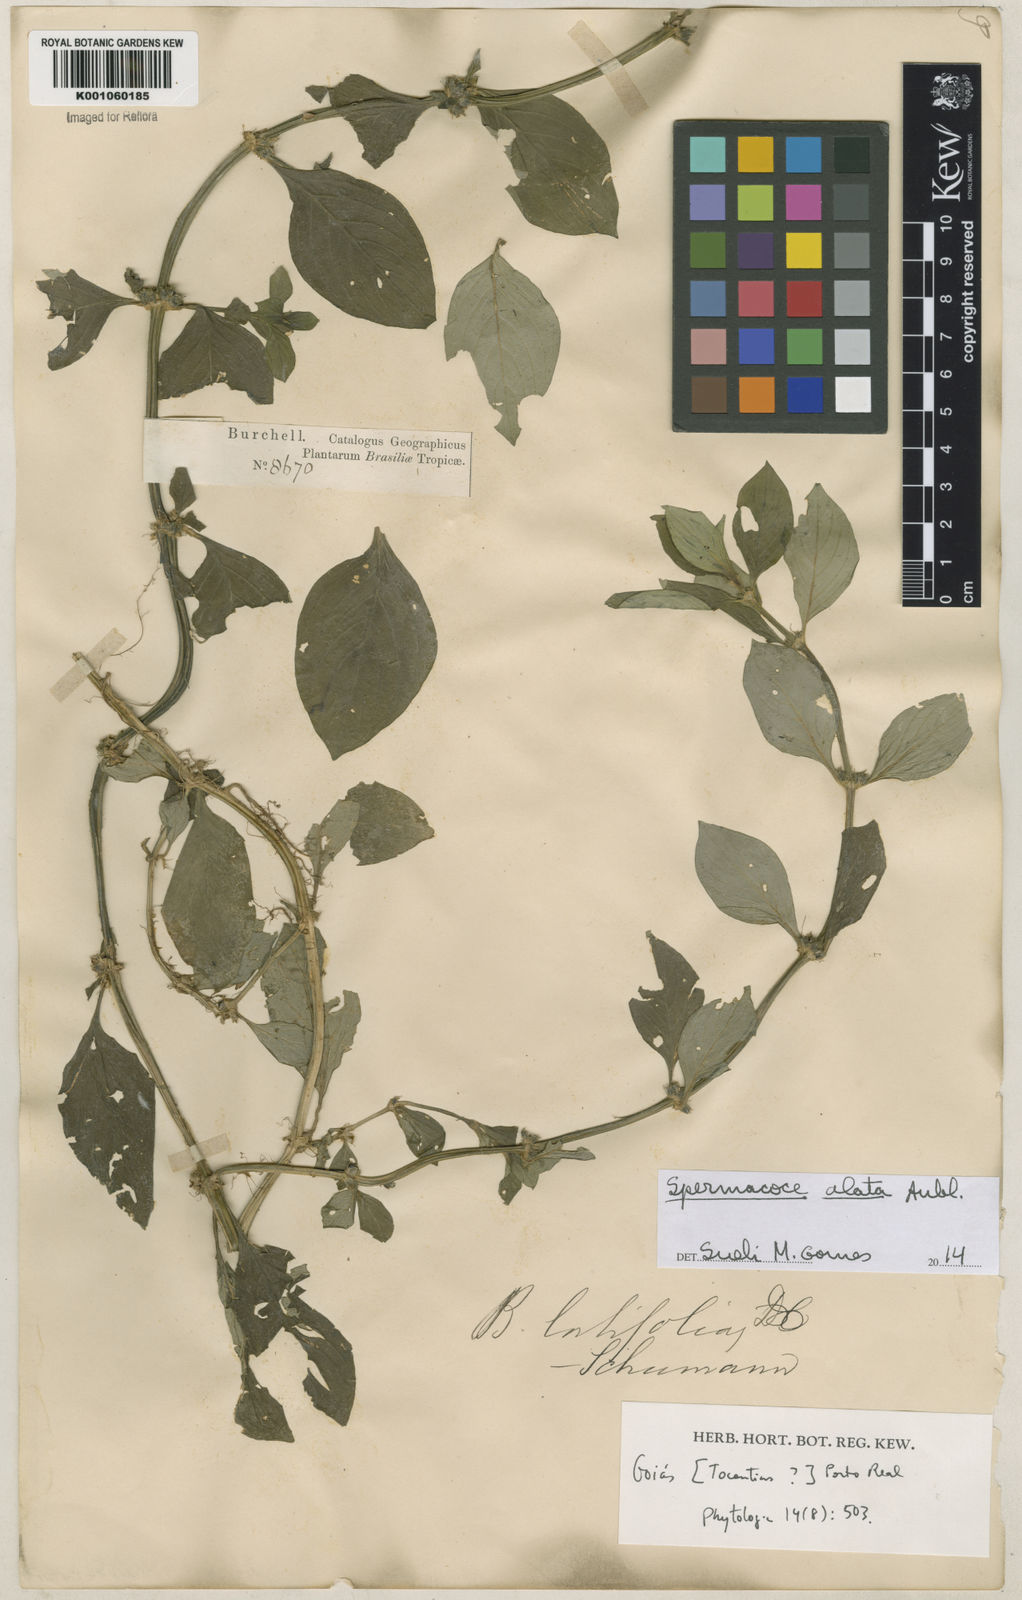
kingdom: Plantae
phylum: Tracheophyta
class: Magnoliopsida
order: Gentianales
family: Rubiaceae
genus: Spermacoce
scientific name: Spermacoce
